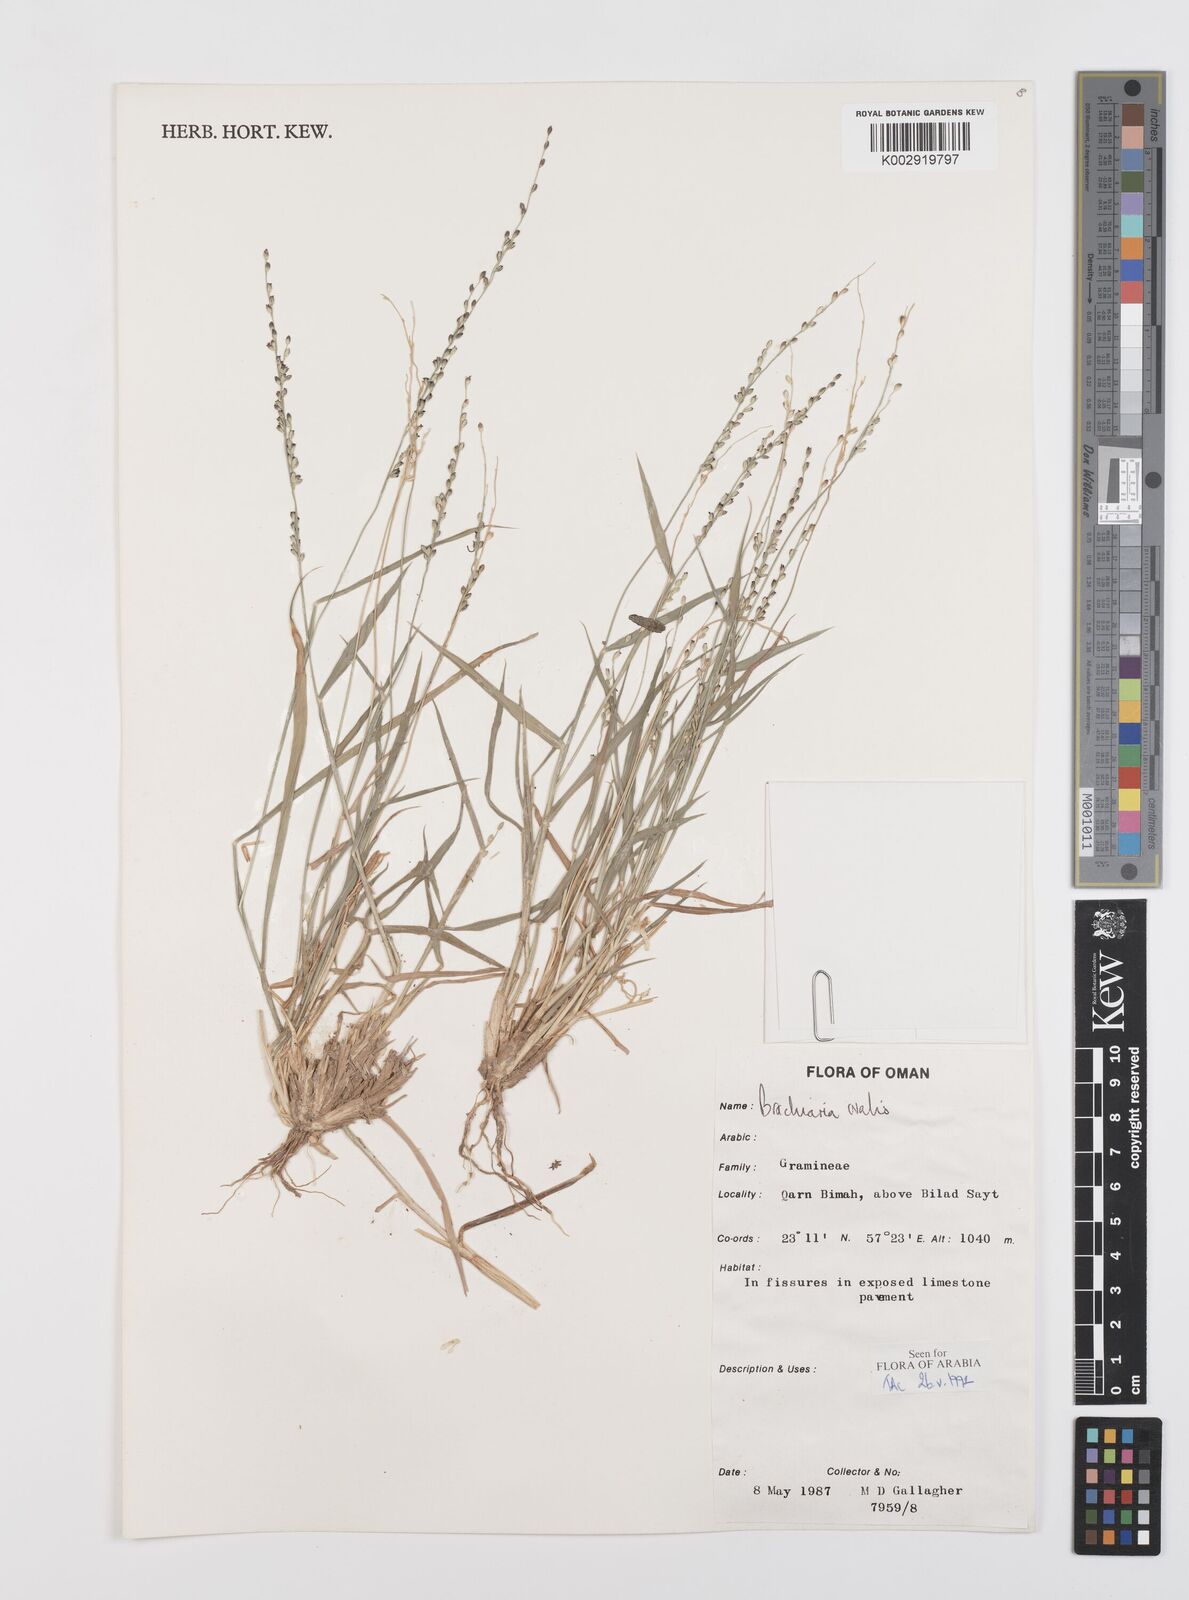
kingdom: Plantae
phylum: Tracheophyta
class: Liliopsida
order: Poales
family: Poaceae
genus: Urochloa
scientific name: Urochloa ovalis
